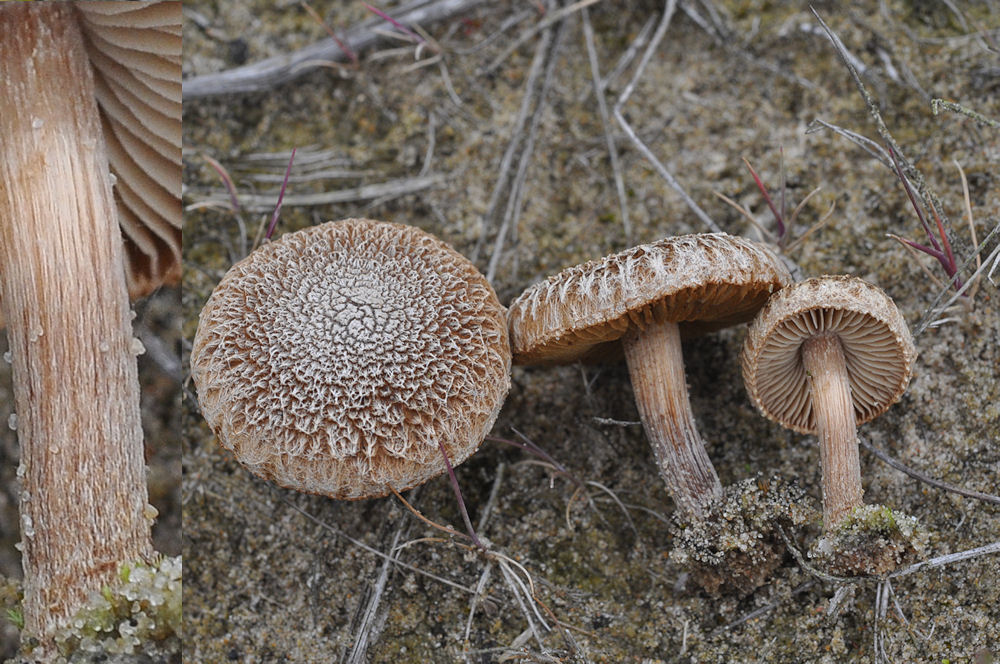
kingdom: Fungi
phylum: Basidiomycota
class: Agaricomycetes
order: Agaricales
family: Inocybaceae
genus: Inocybe
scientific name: Inocybe impexa
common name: hygrofan trævlhat
